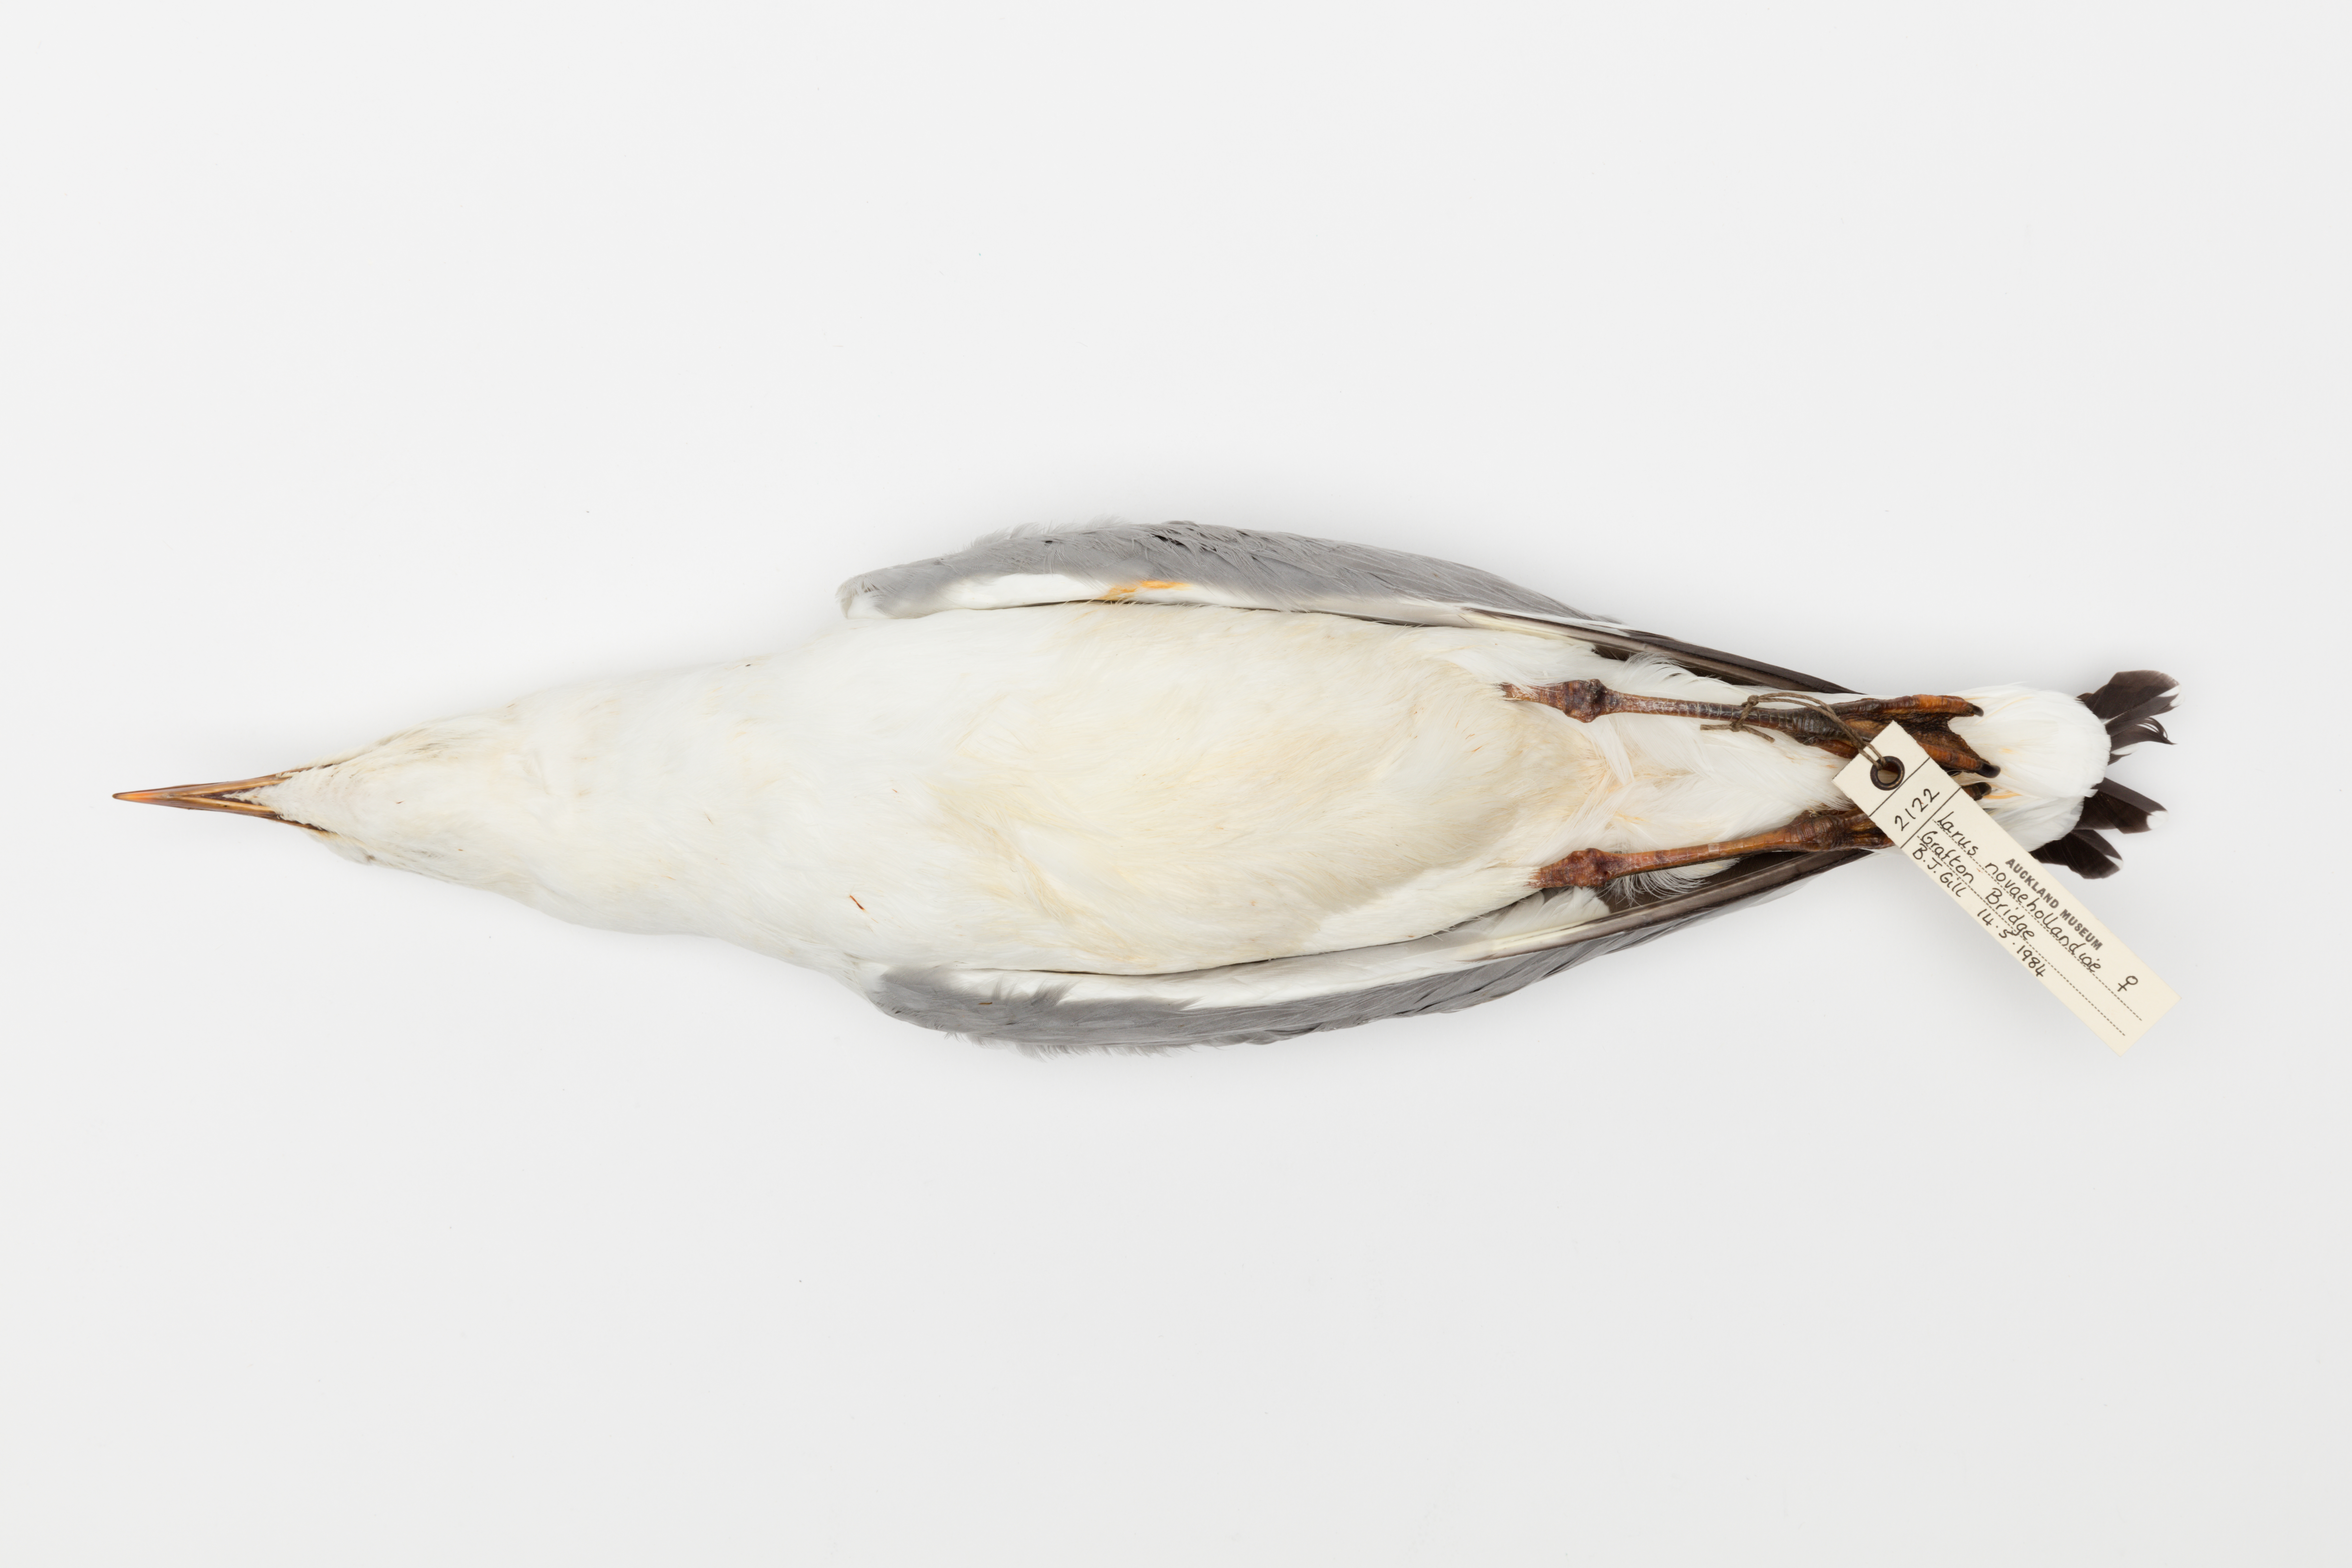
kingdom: Animalia
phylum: Chordata
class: Aves
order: Charadriiformes
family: Laridae
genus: Chroicocephalus
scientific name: Chroicocephalus novaehollandiae
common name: Silver gull
